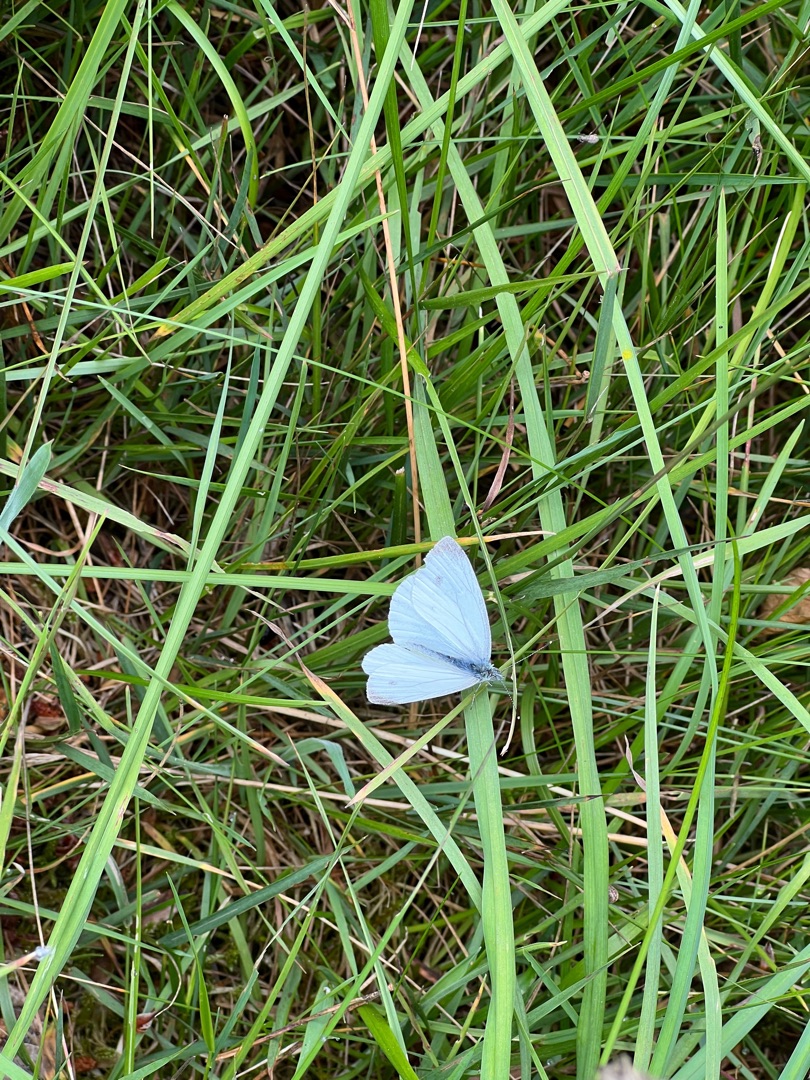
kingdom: Animalia
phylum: Arthropoda
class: Insecta
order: Lepidoptera
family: Pieridae
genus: Pieris
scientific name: Pieris napi
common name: Grønåret kålsommerfugl
